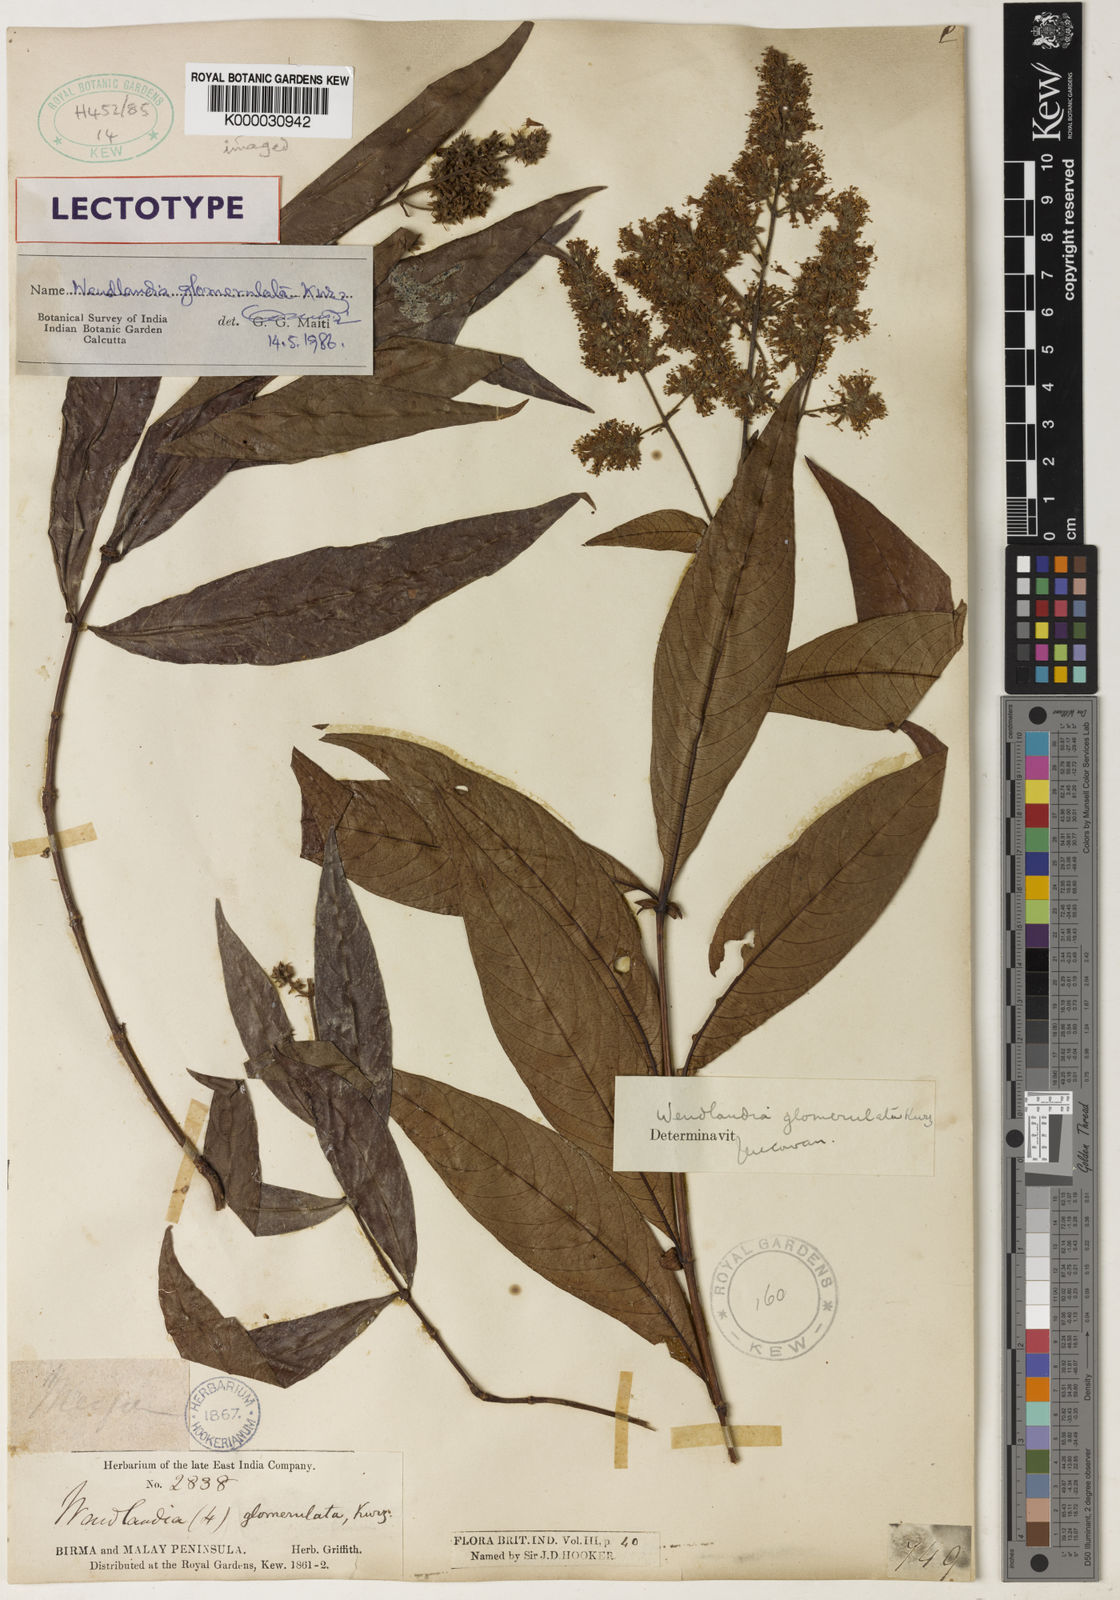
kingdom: Plantae
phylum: Tracheophyta
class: Magnoliopsida
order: Gentianales
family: Rubiaceae
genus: Wendlandia
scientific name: Wendlandia glomerulata
